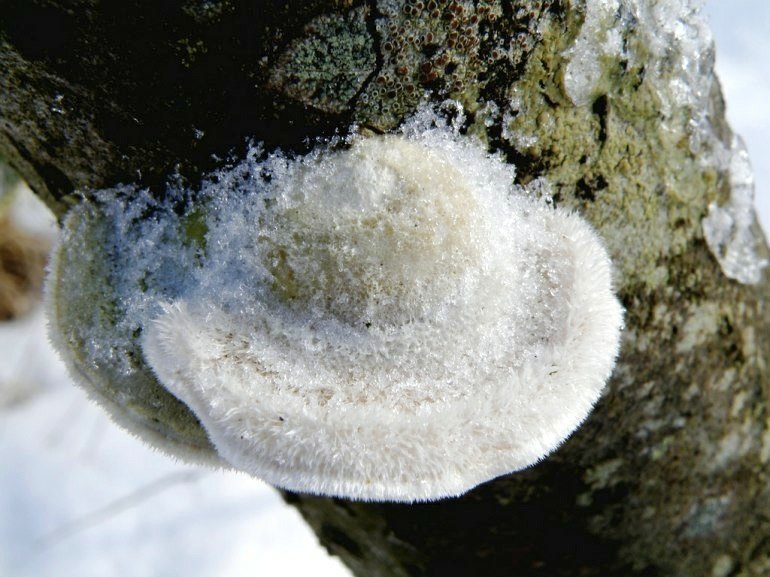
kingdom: Fungi
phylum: Basidiomycota
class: Agaricomycetes
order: Polyporales
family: Polyporaceae
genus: Trametes
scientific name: Trametes hirsuta
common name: håret læderporesvamp
